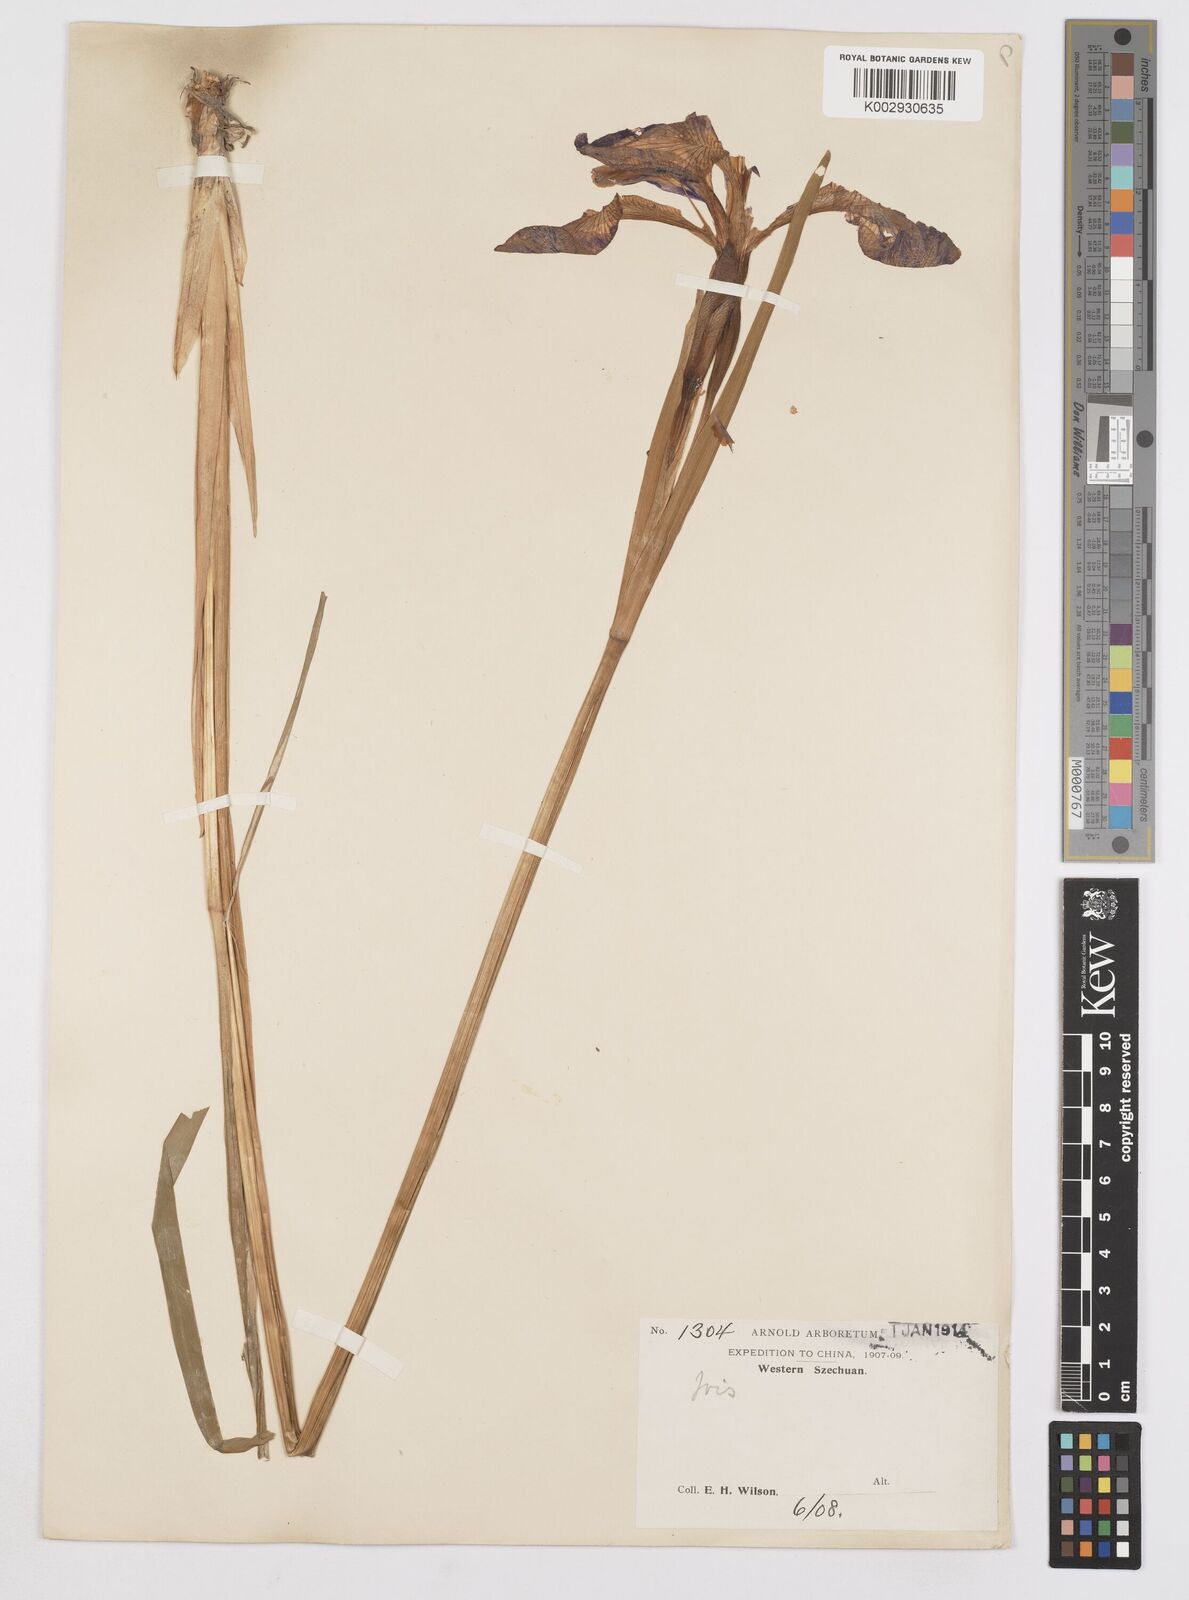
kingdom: Plantae
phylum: Tracheophyta
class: Liliopsida
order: Asparagales
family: Iridaceae
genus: Iris
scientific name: Iris laevigata
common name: Japanese iris
